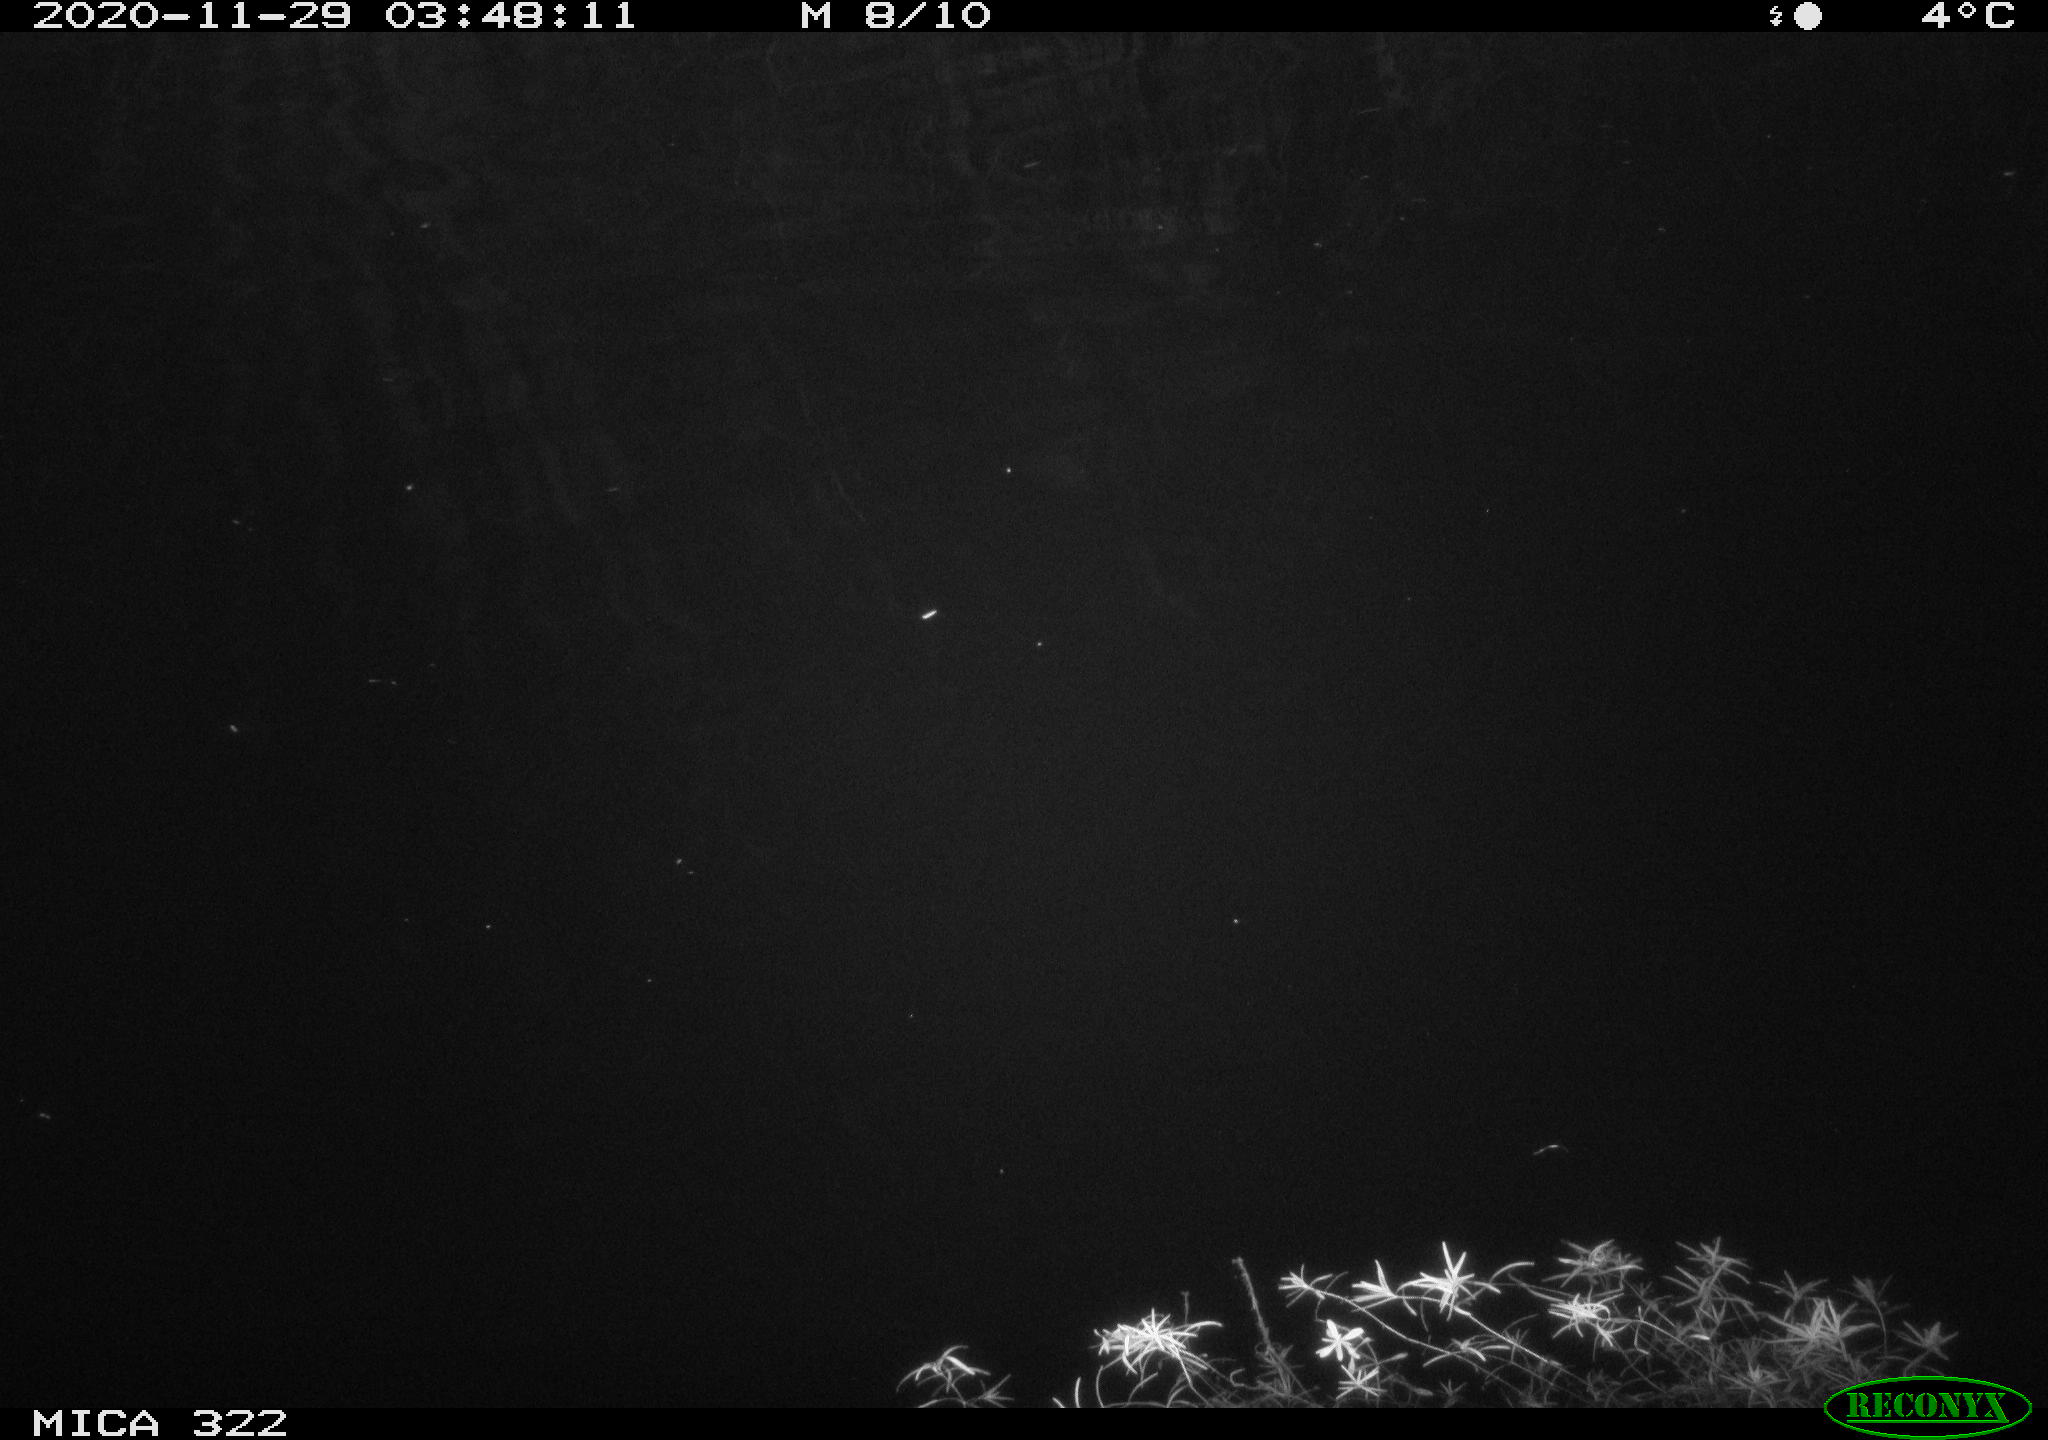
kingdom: Animalia
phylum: Chordata
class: Mammalia
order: Rodentia
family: Muridae
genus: Rattus
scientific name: Rattus norvegicus
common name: Brown rat
